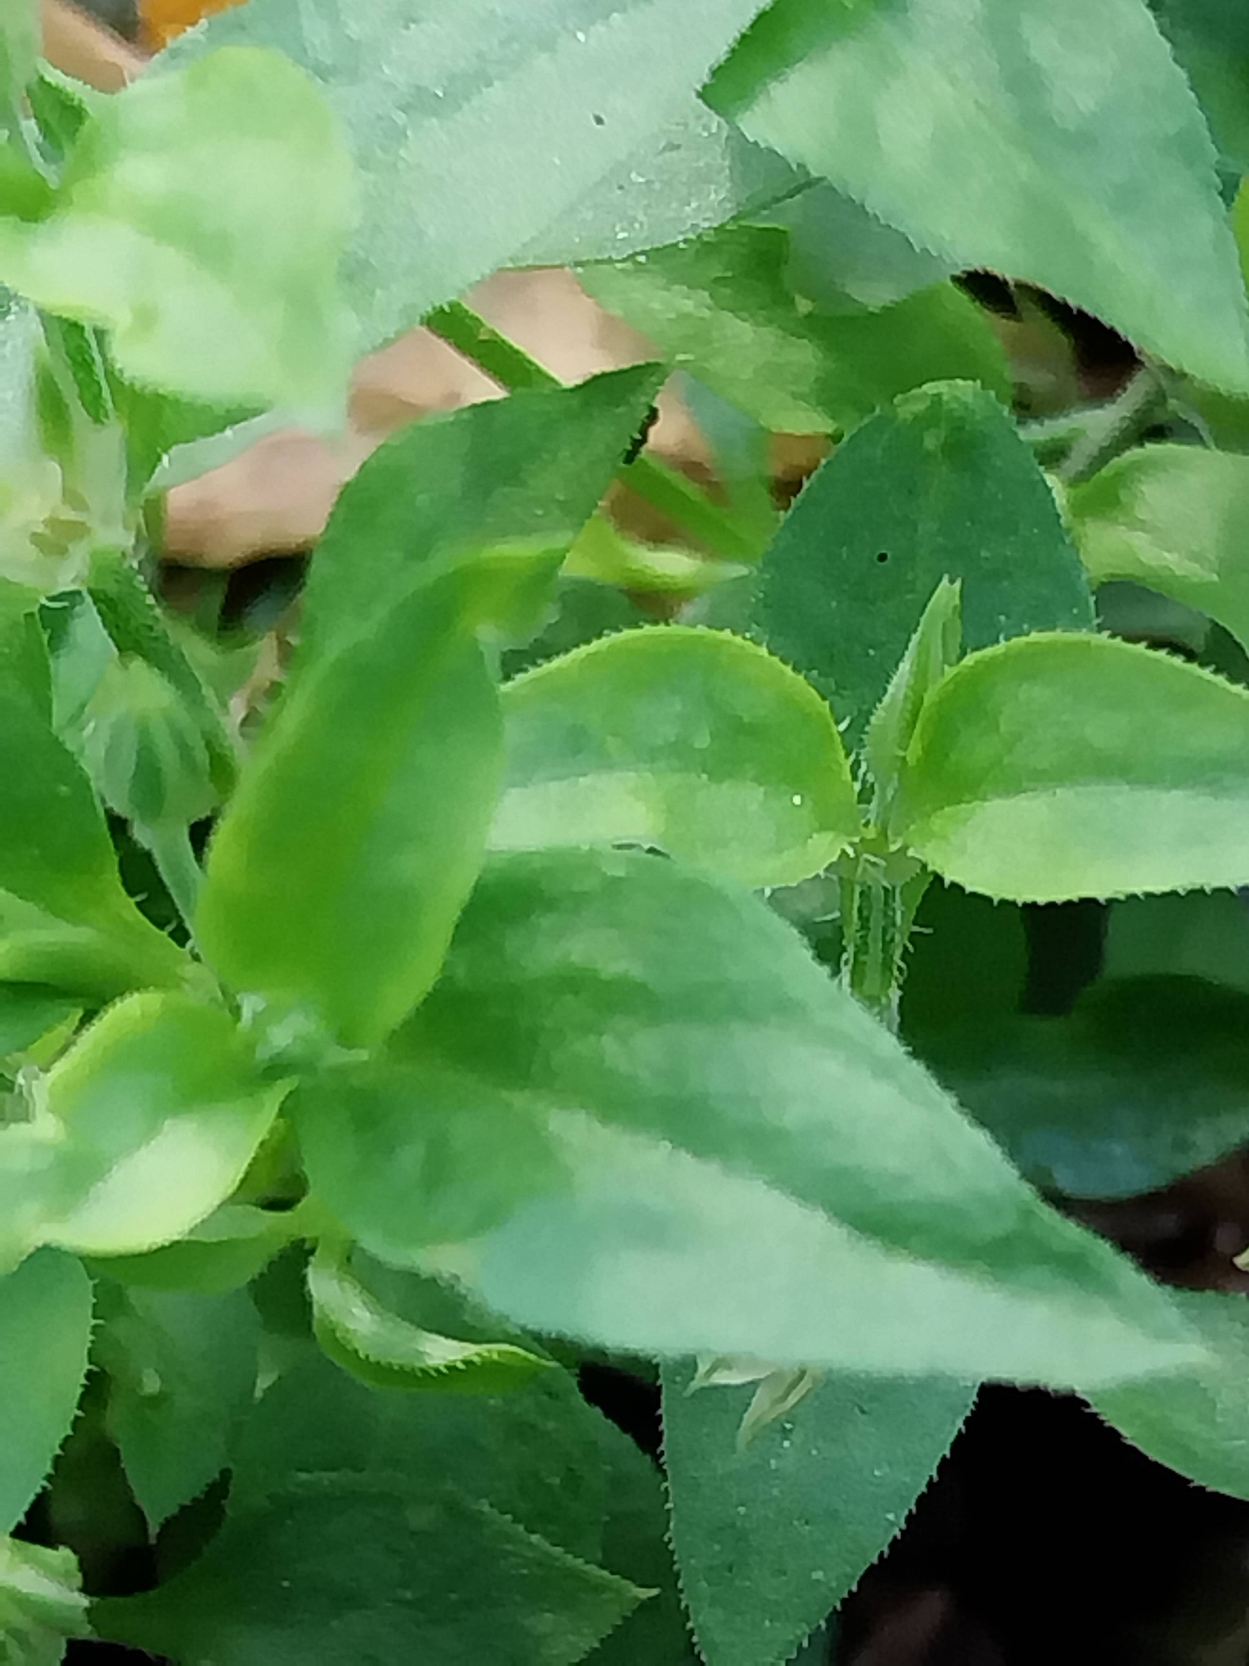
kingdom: Plantae
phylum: Tracheophyta
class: Magnoliopsida
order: Caryophyllales
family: Caryophyllaceae
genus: Moehringia
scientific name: Moehringia trinervia
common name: Skovarve
